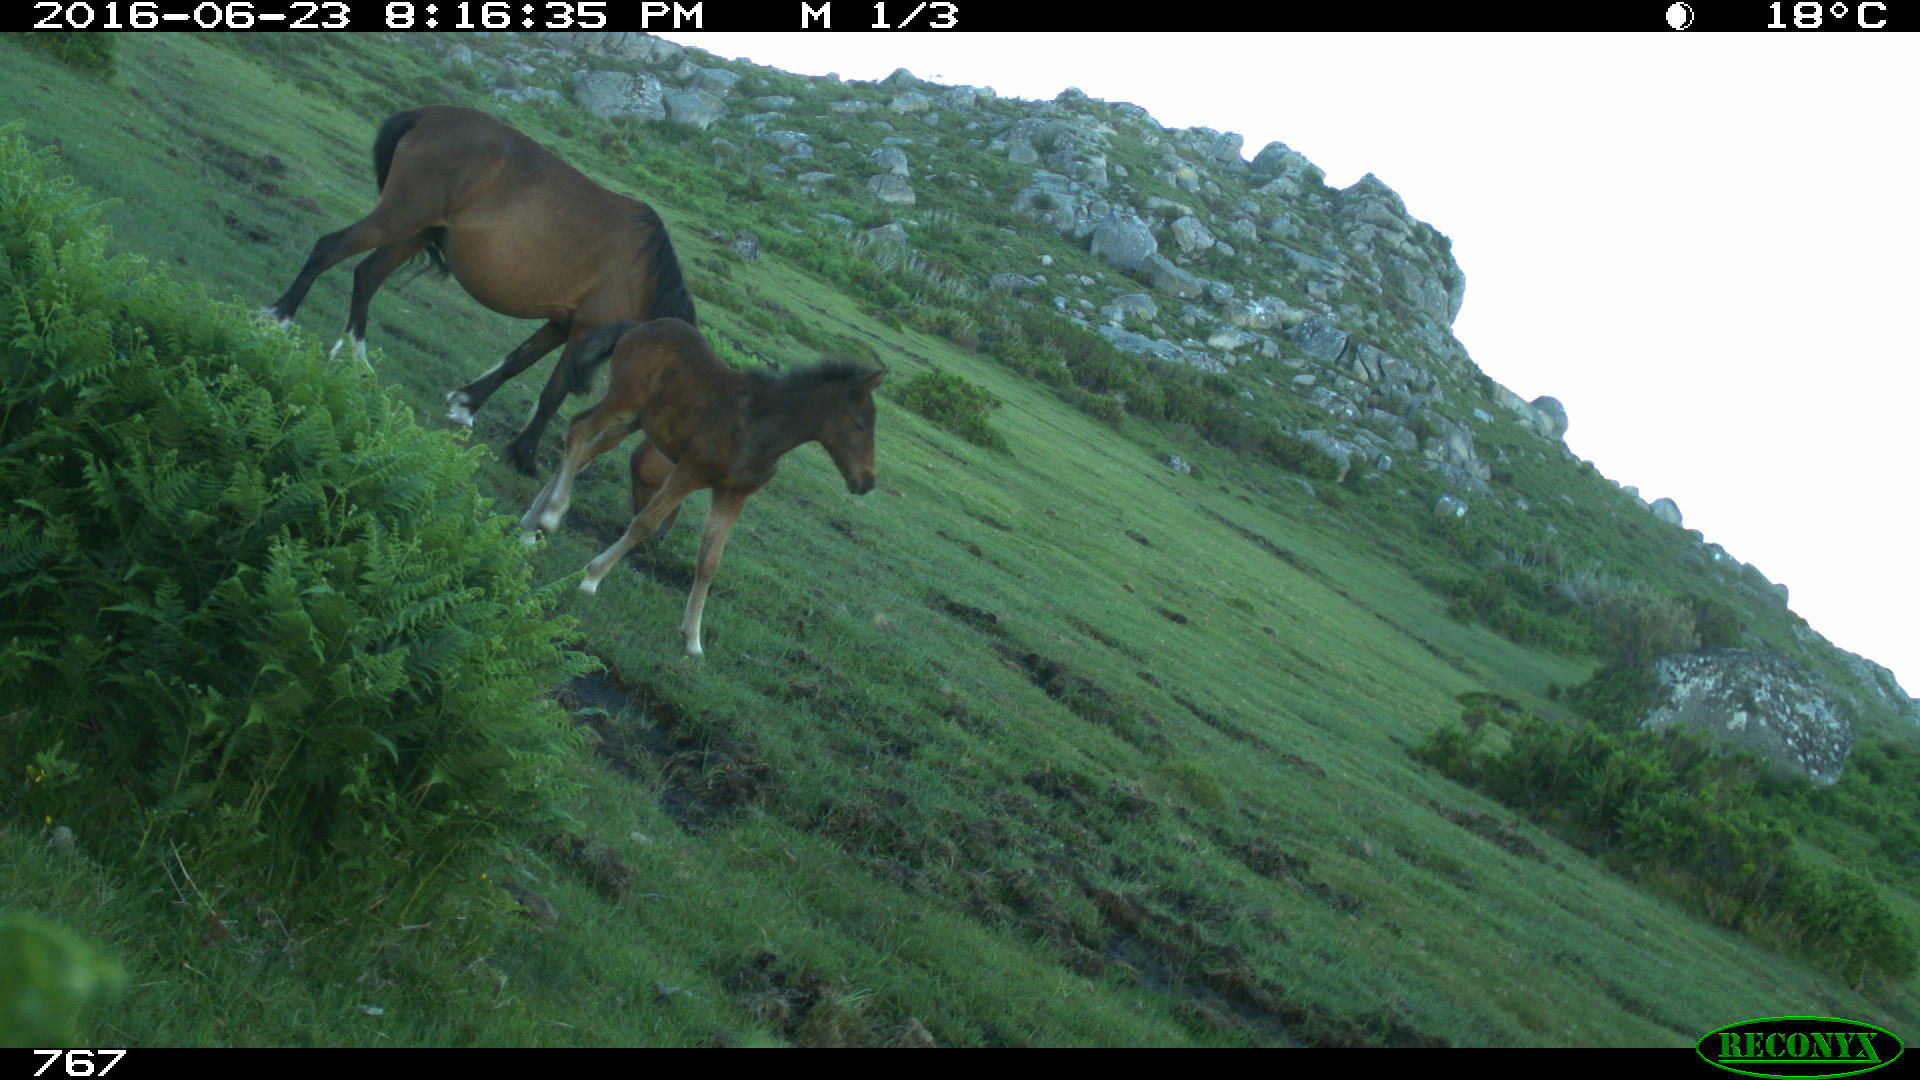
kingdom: Animalia
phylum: Chordata
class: Mammalia
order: Perissodactyla
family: Equidae
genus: Equus
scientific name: Equus caballus
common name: Horse
